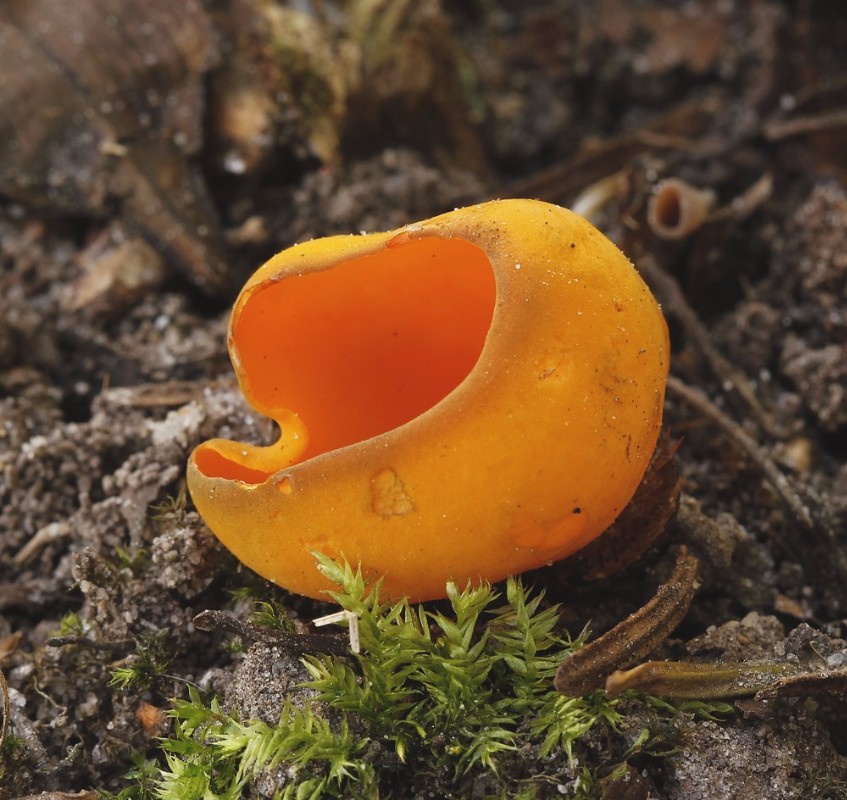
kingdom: Fungi
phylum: Ascomycota
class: Pezizomycetes
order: Pezizales
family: Caloscyphaceae
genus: Caloscypha
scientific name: Caloscypha fulgens
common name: jadebæger
